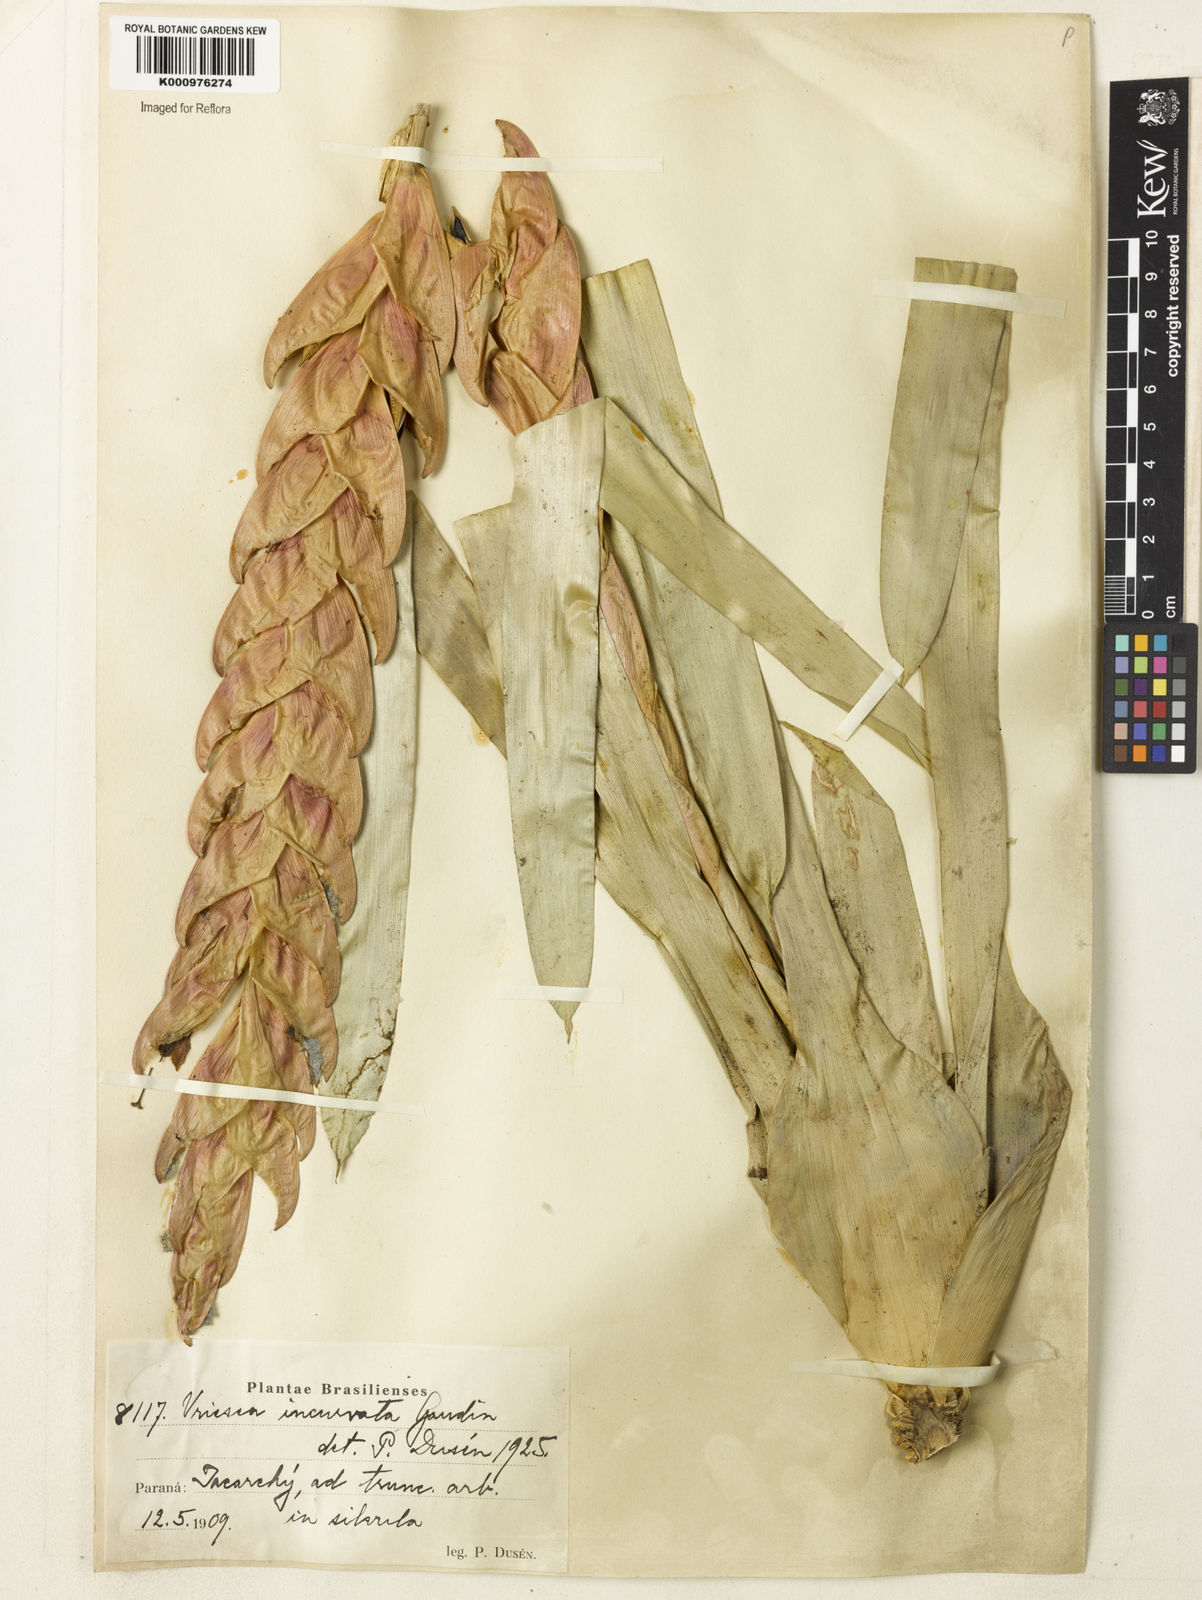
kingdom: Plantae
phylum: Tracheophyta
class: Liliopsida
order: Poales
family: Bromeliaceae
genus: Vriesea
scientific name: Vriesea incurvata
